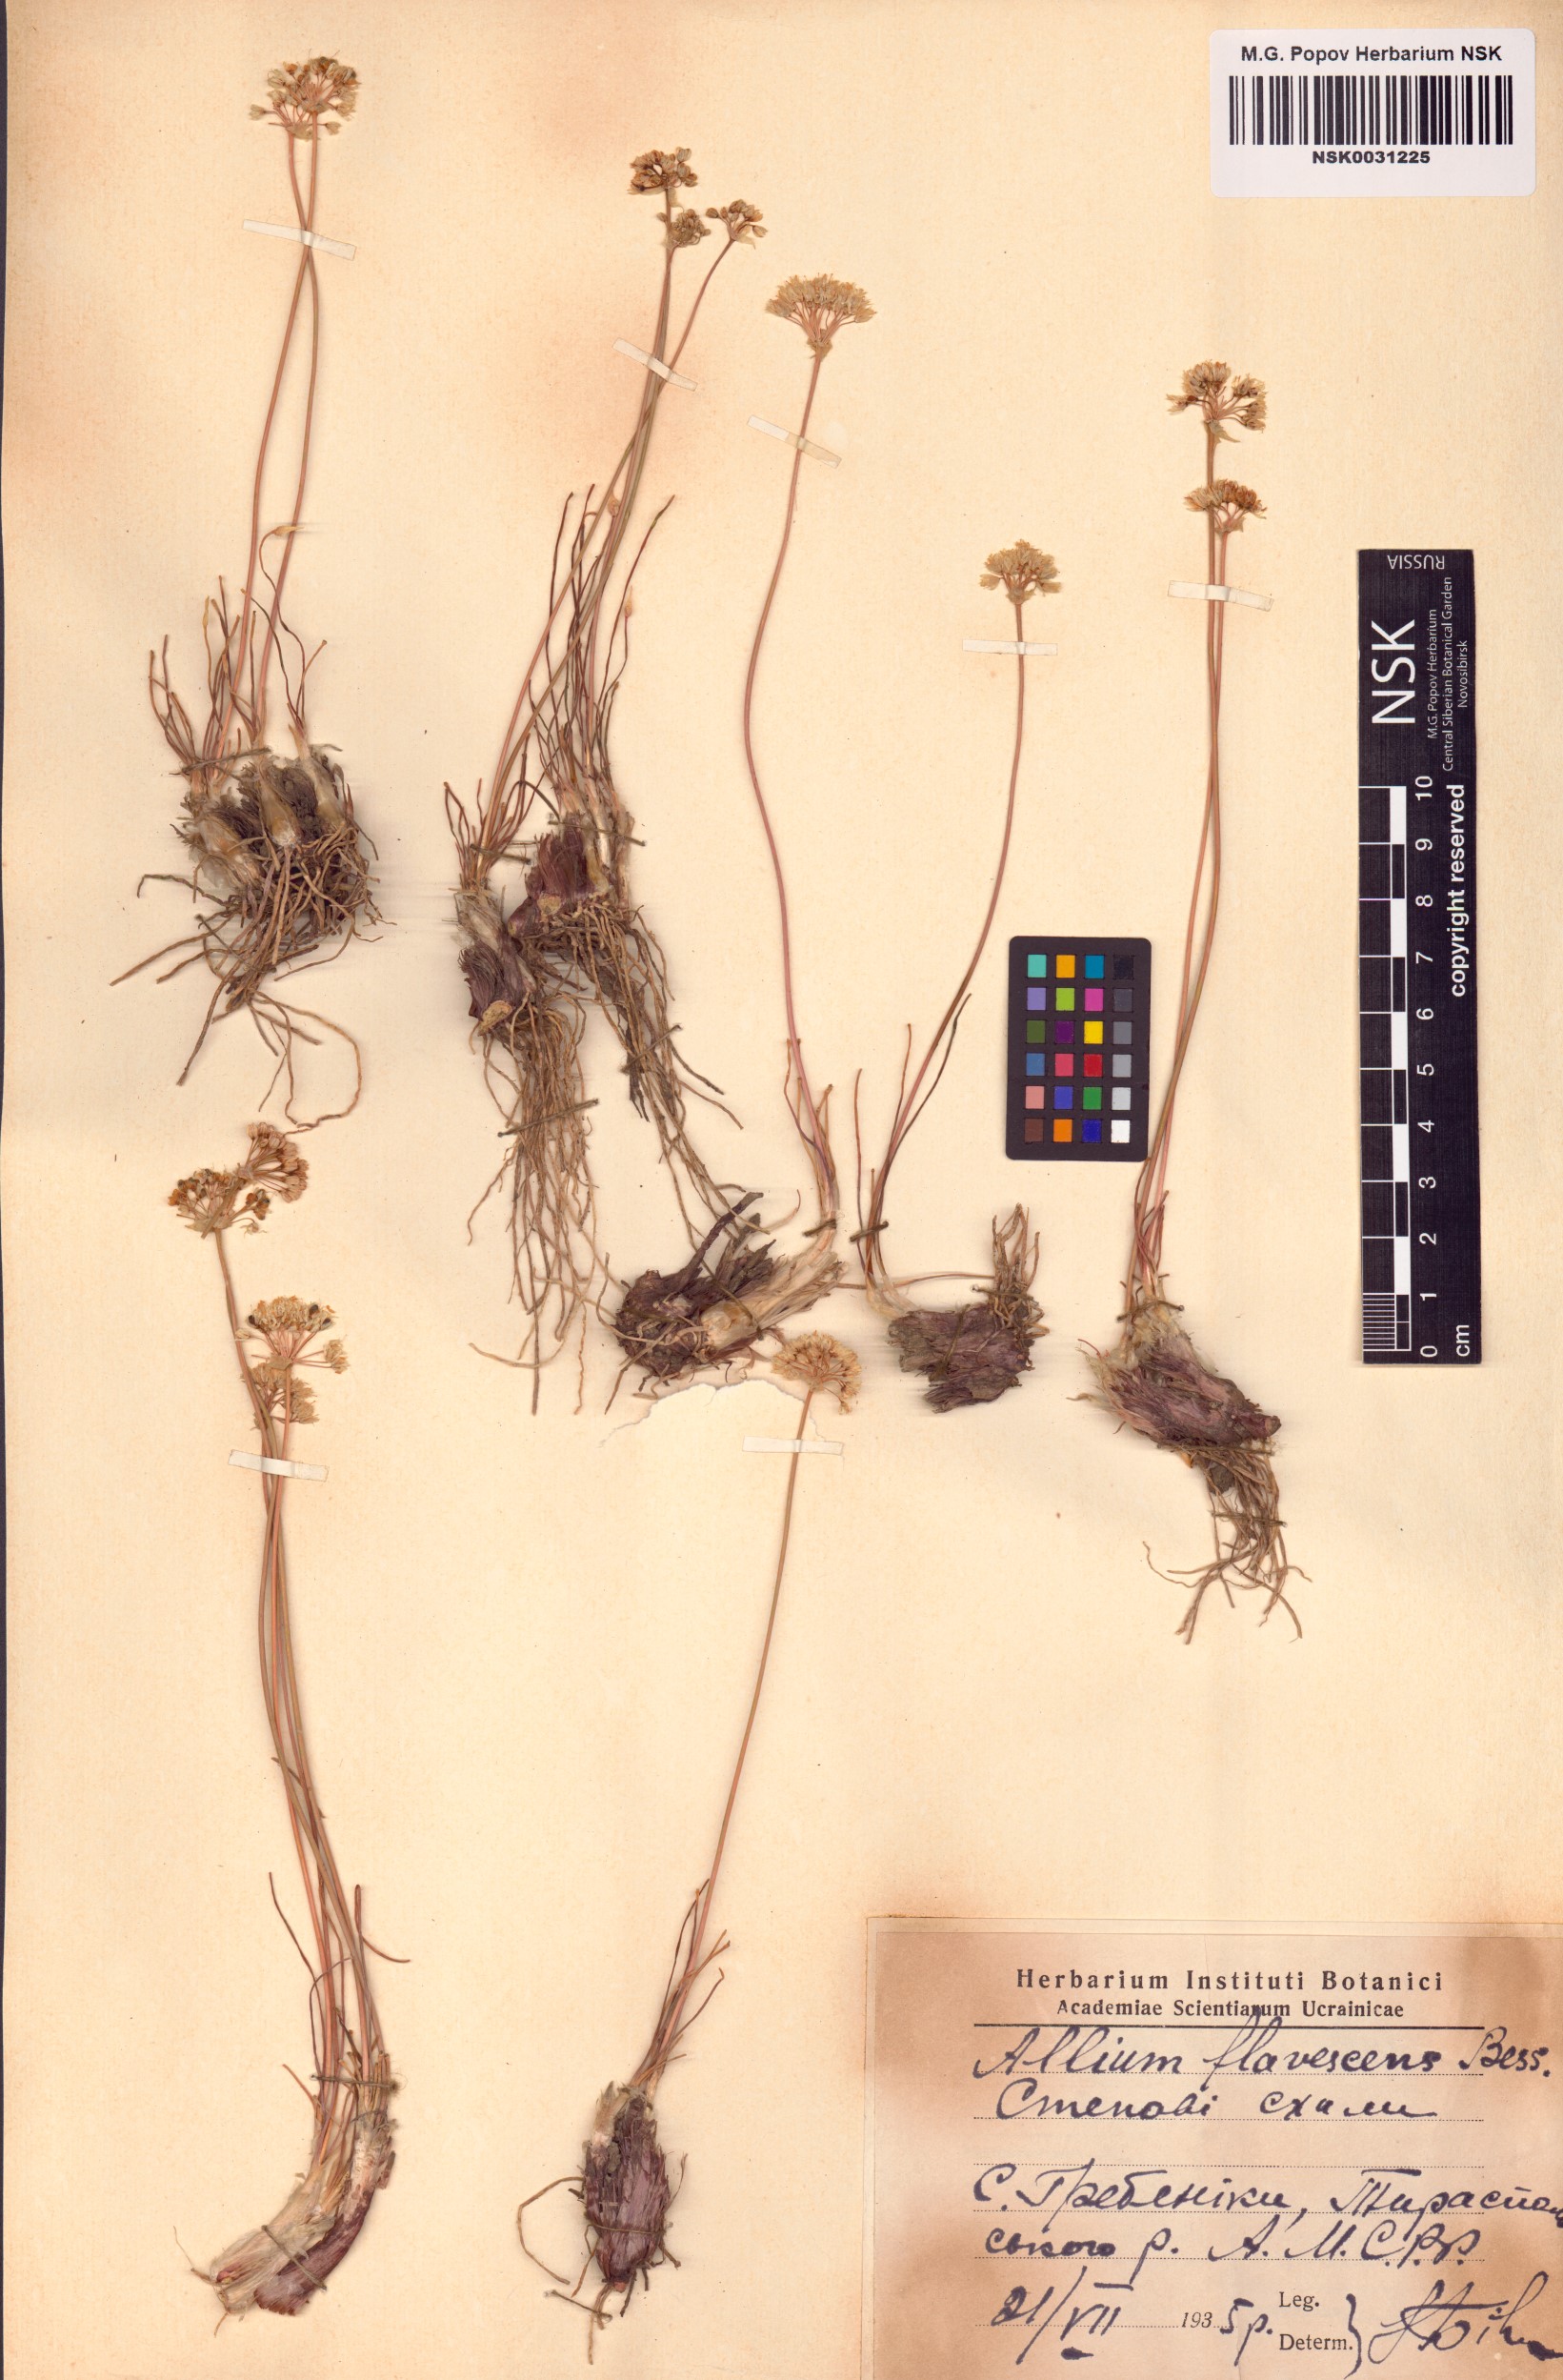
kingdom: Plantae
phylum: Tracheophyta
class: Liliopsida
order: Asparagales
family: Amaryllidaceae
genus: Allium
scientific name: Allium flavescens
